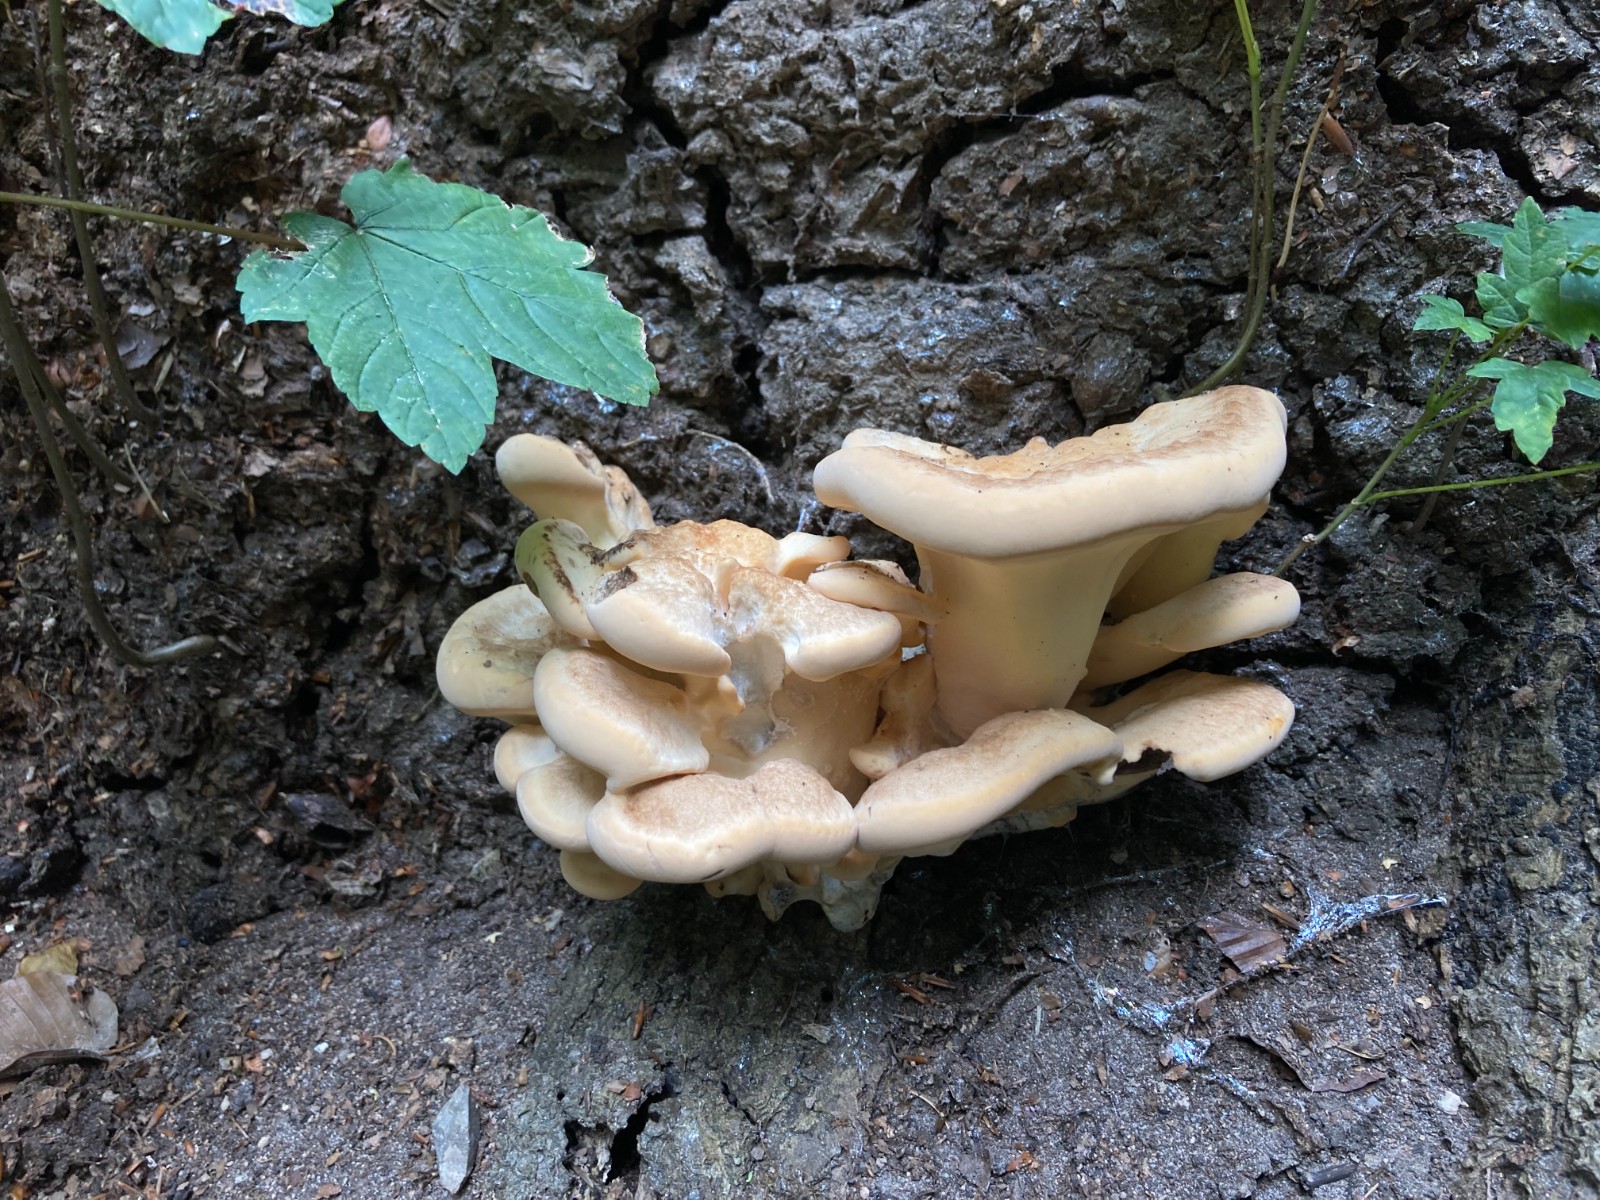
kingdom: Fungi
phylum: Basidiomycota
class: Agaricomycetes
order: Polyporales
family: Meripilaceae
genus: Meripilus
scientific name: Meripilus giganteus
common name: kæmpeporesvamp
